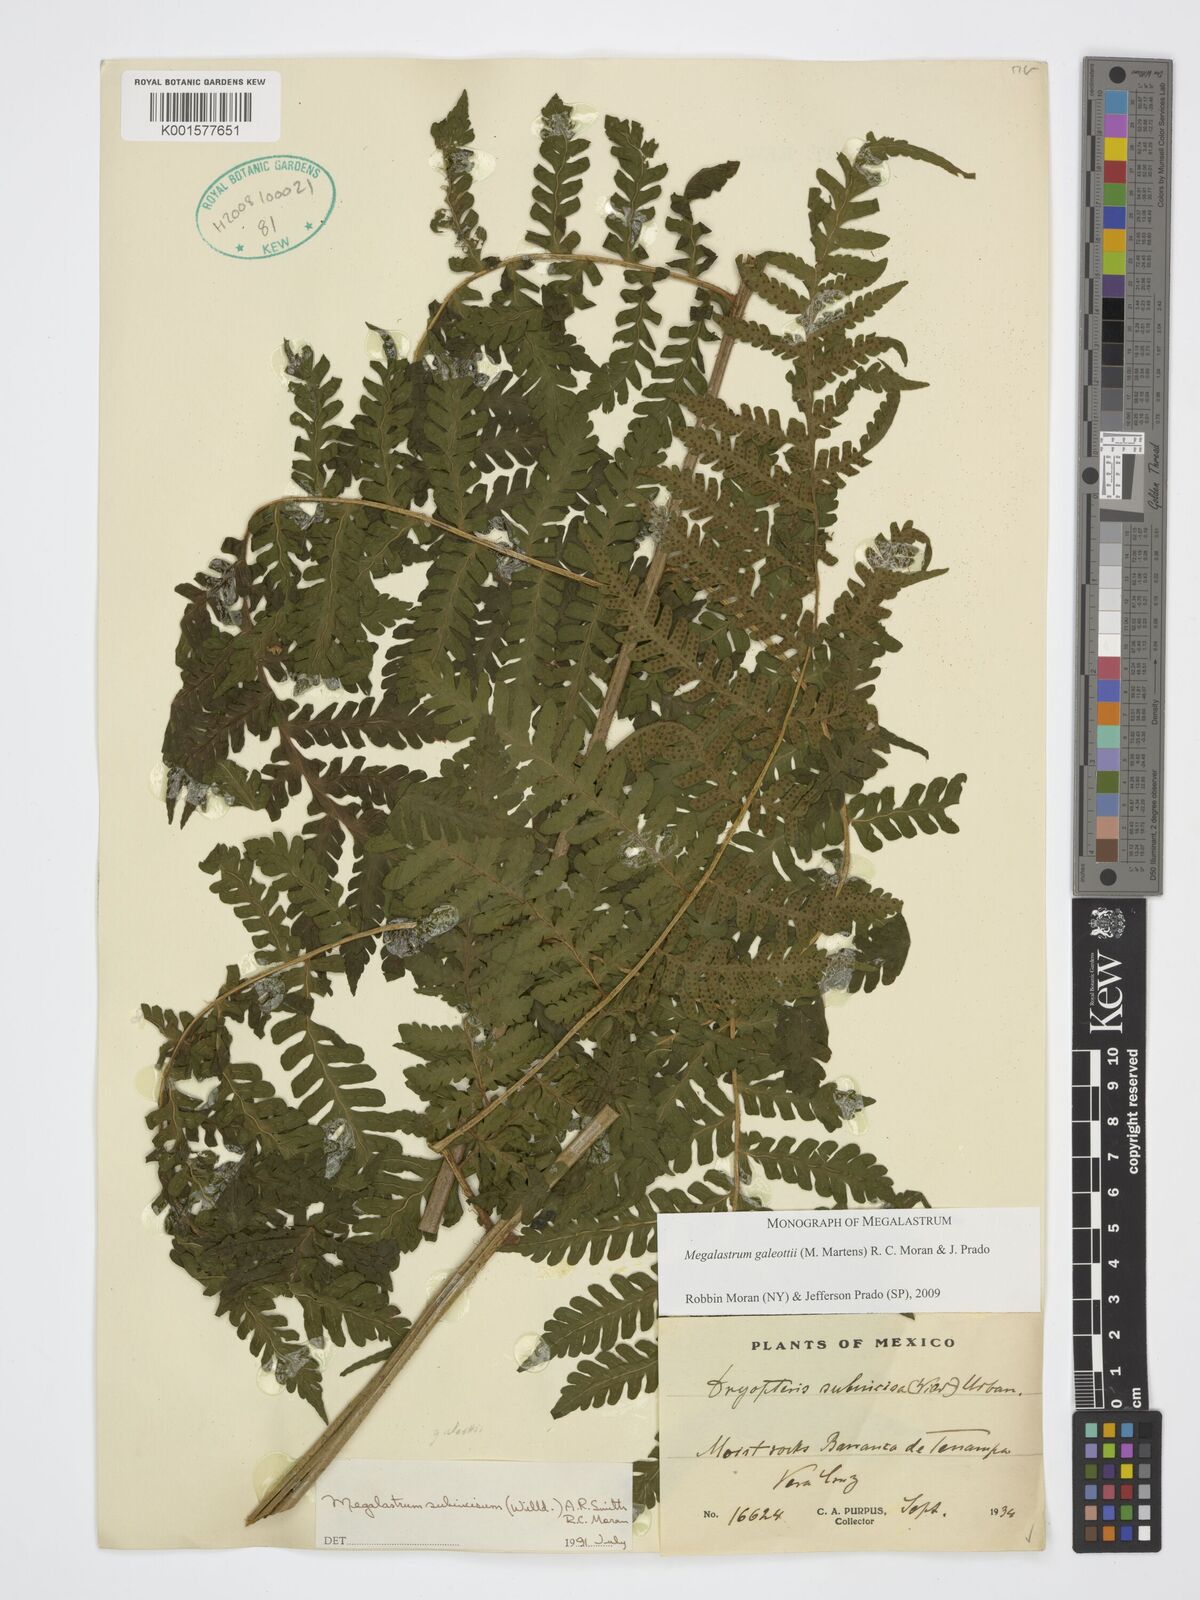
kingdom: Plantae
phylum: Tracheophyta
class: Polypodiopsida
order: Polypodiales
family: Dryopteridaceae
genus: Megalastrum
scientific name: Megalastrum galeottii
